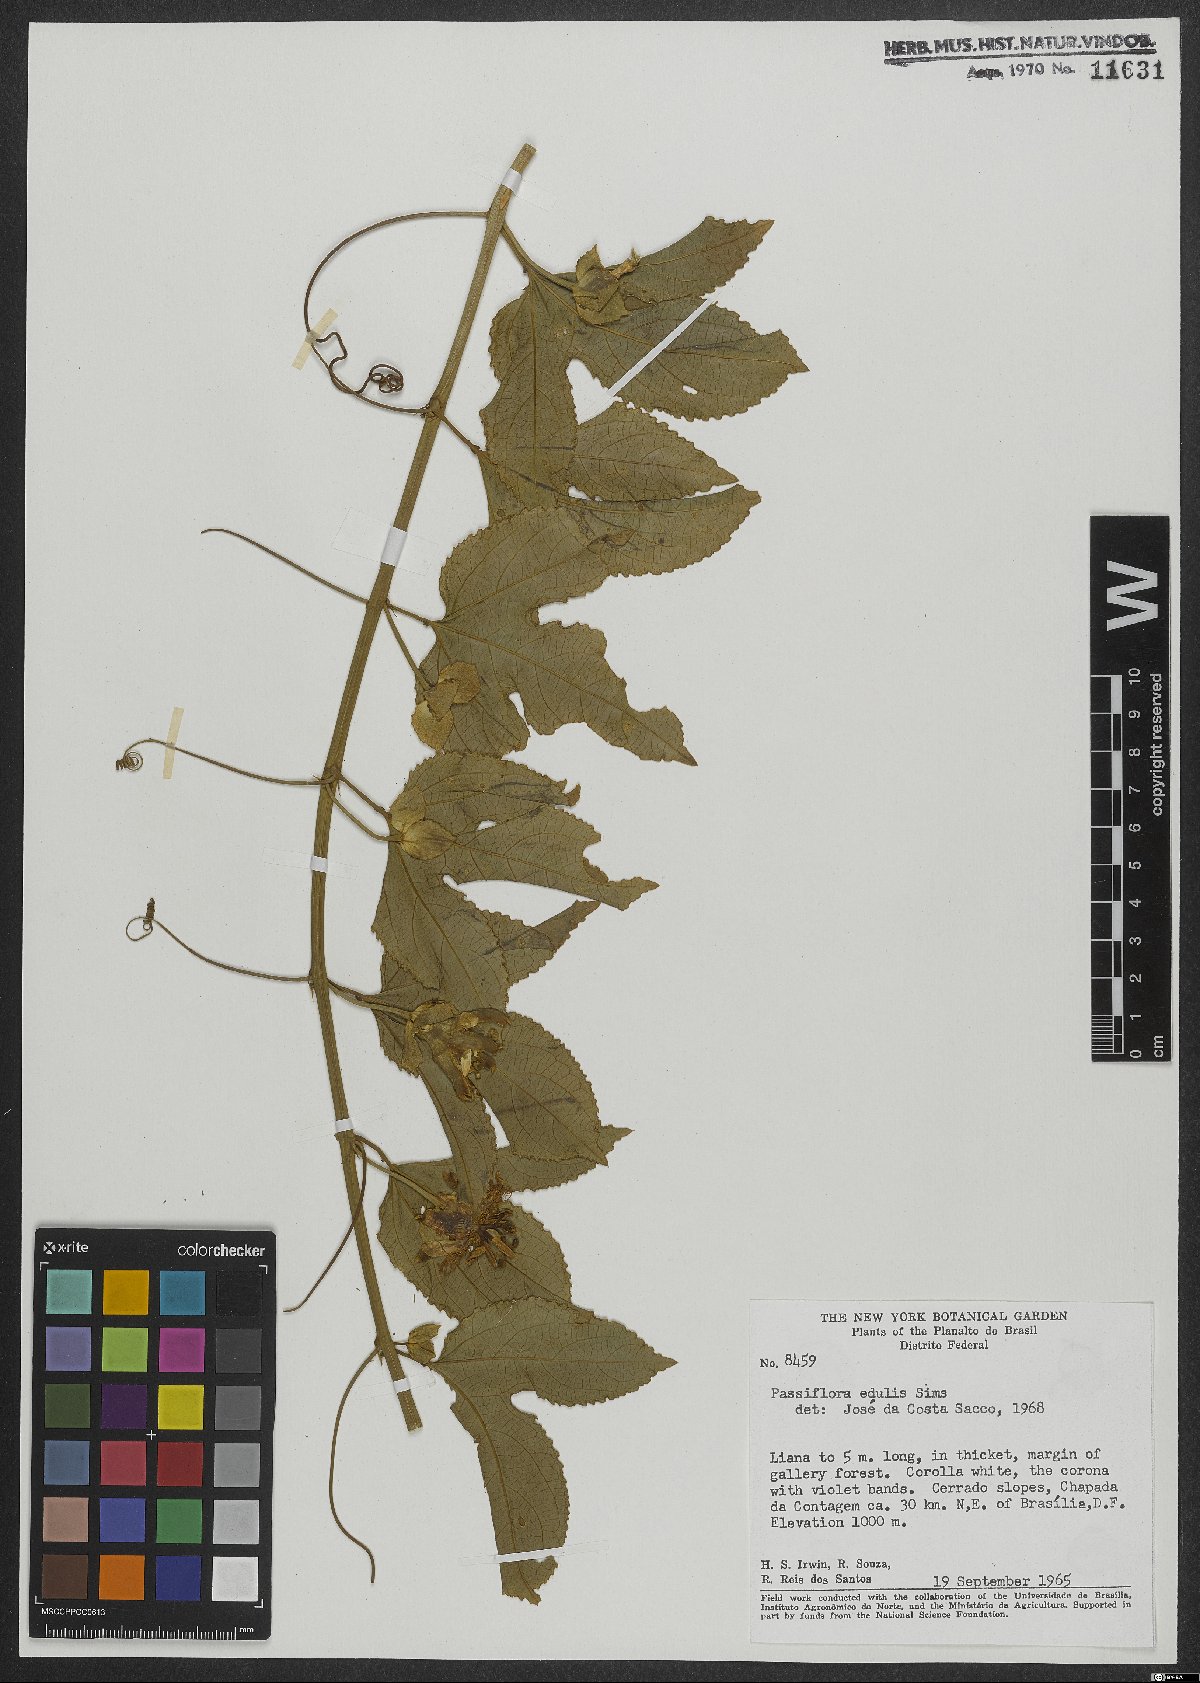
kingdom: Plantae
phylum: Tracheophyta
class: Magnoliopsida
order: Malpighiales
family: Passifloraceae
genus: Passiflora
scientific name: Passiflora edulis
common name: Purple granadilla
